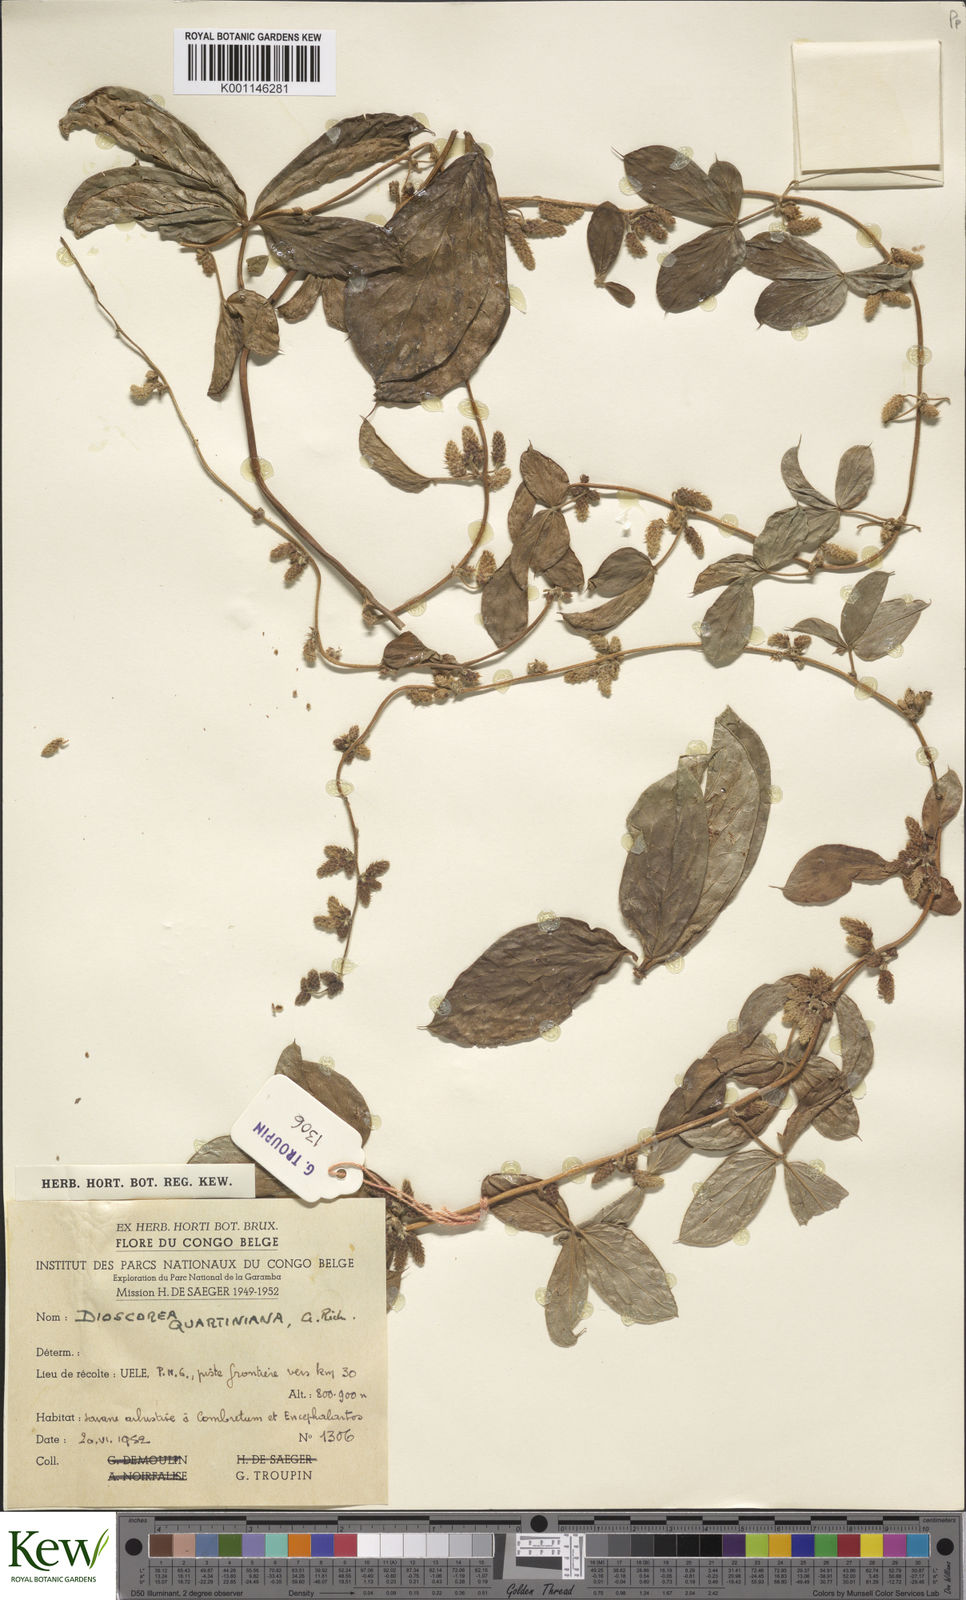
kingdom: Plantae
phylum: Tracheophyta
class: Liliopsida
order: Dioscoreales
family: Dioscoreaceae
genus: Dioscorea
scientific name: Dioscorea quartiniana
